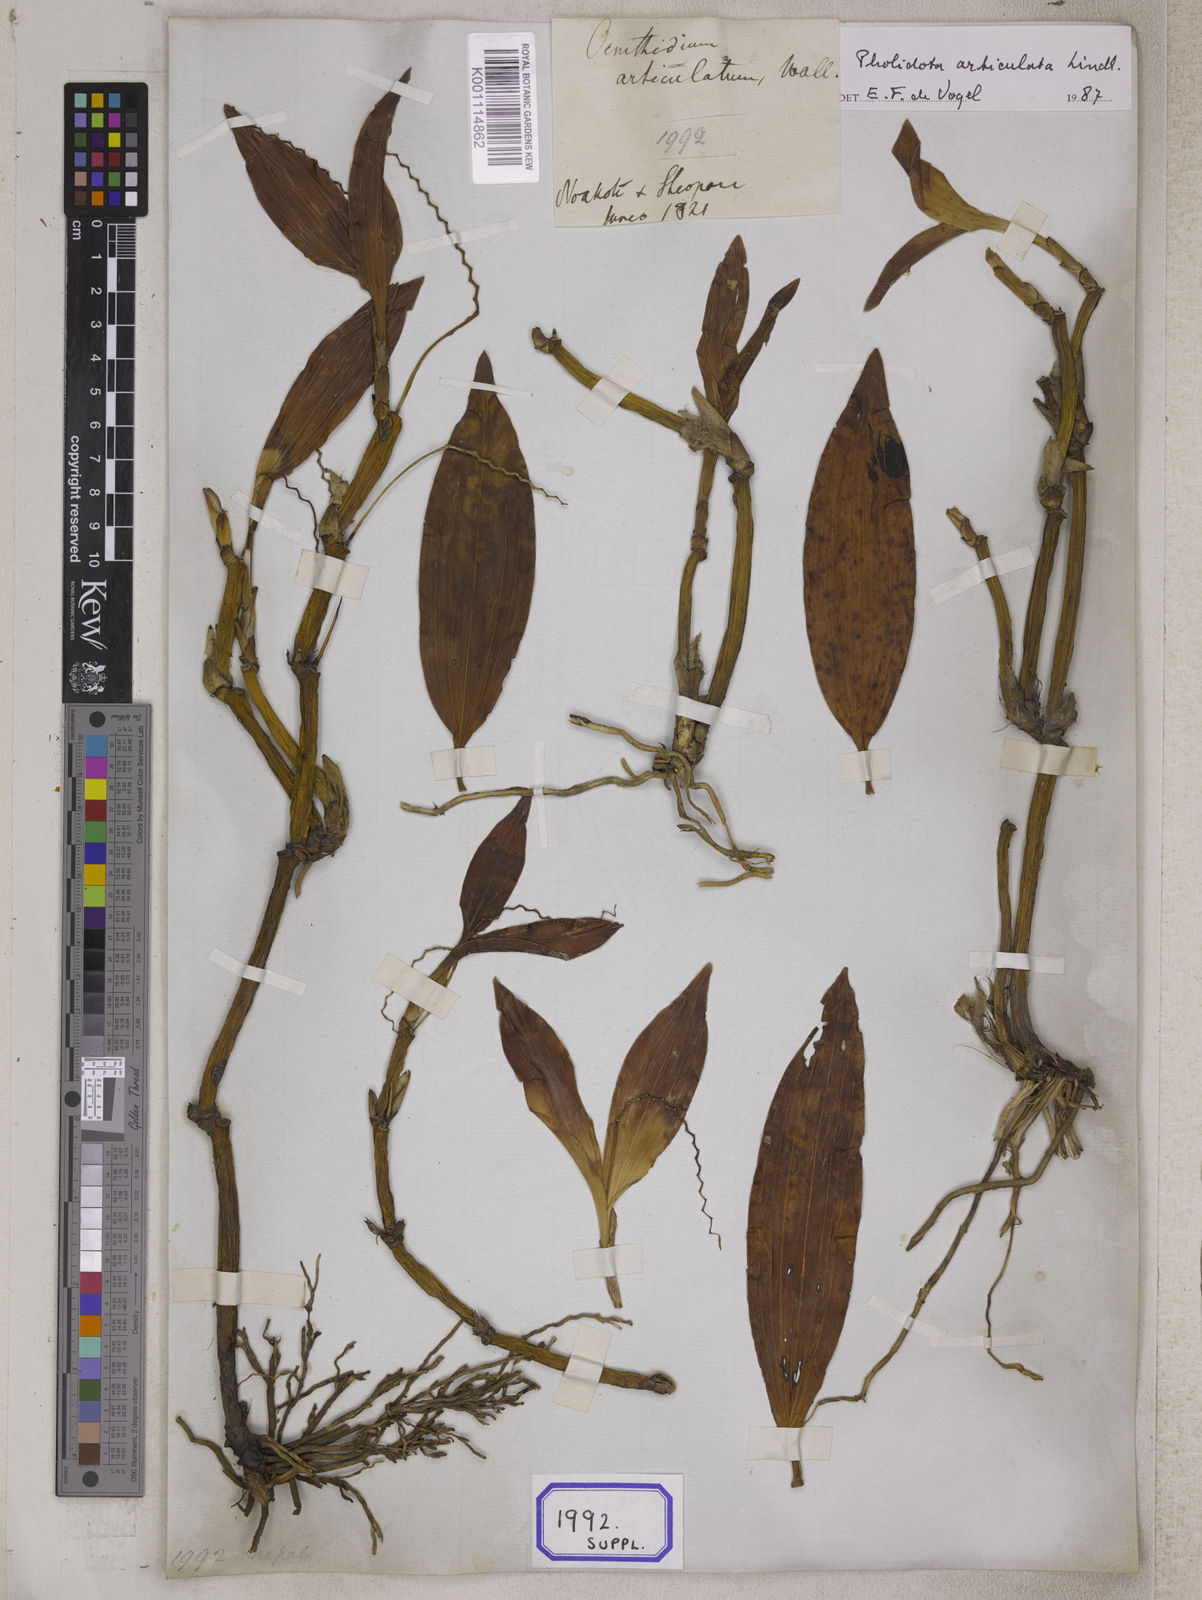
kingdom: Plantae
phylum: Tracheophyta
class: Liliopsida
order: Asparagales
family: Orchidaceae
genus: Coelogyne
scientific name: Coelogyne articulata
